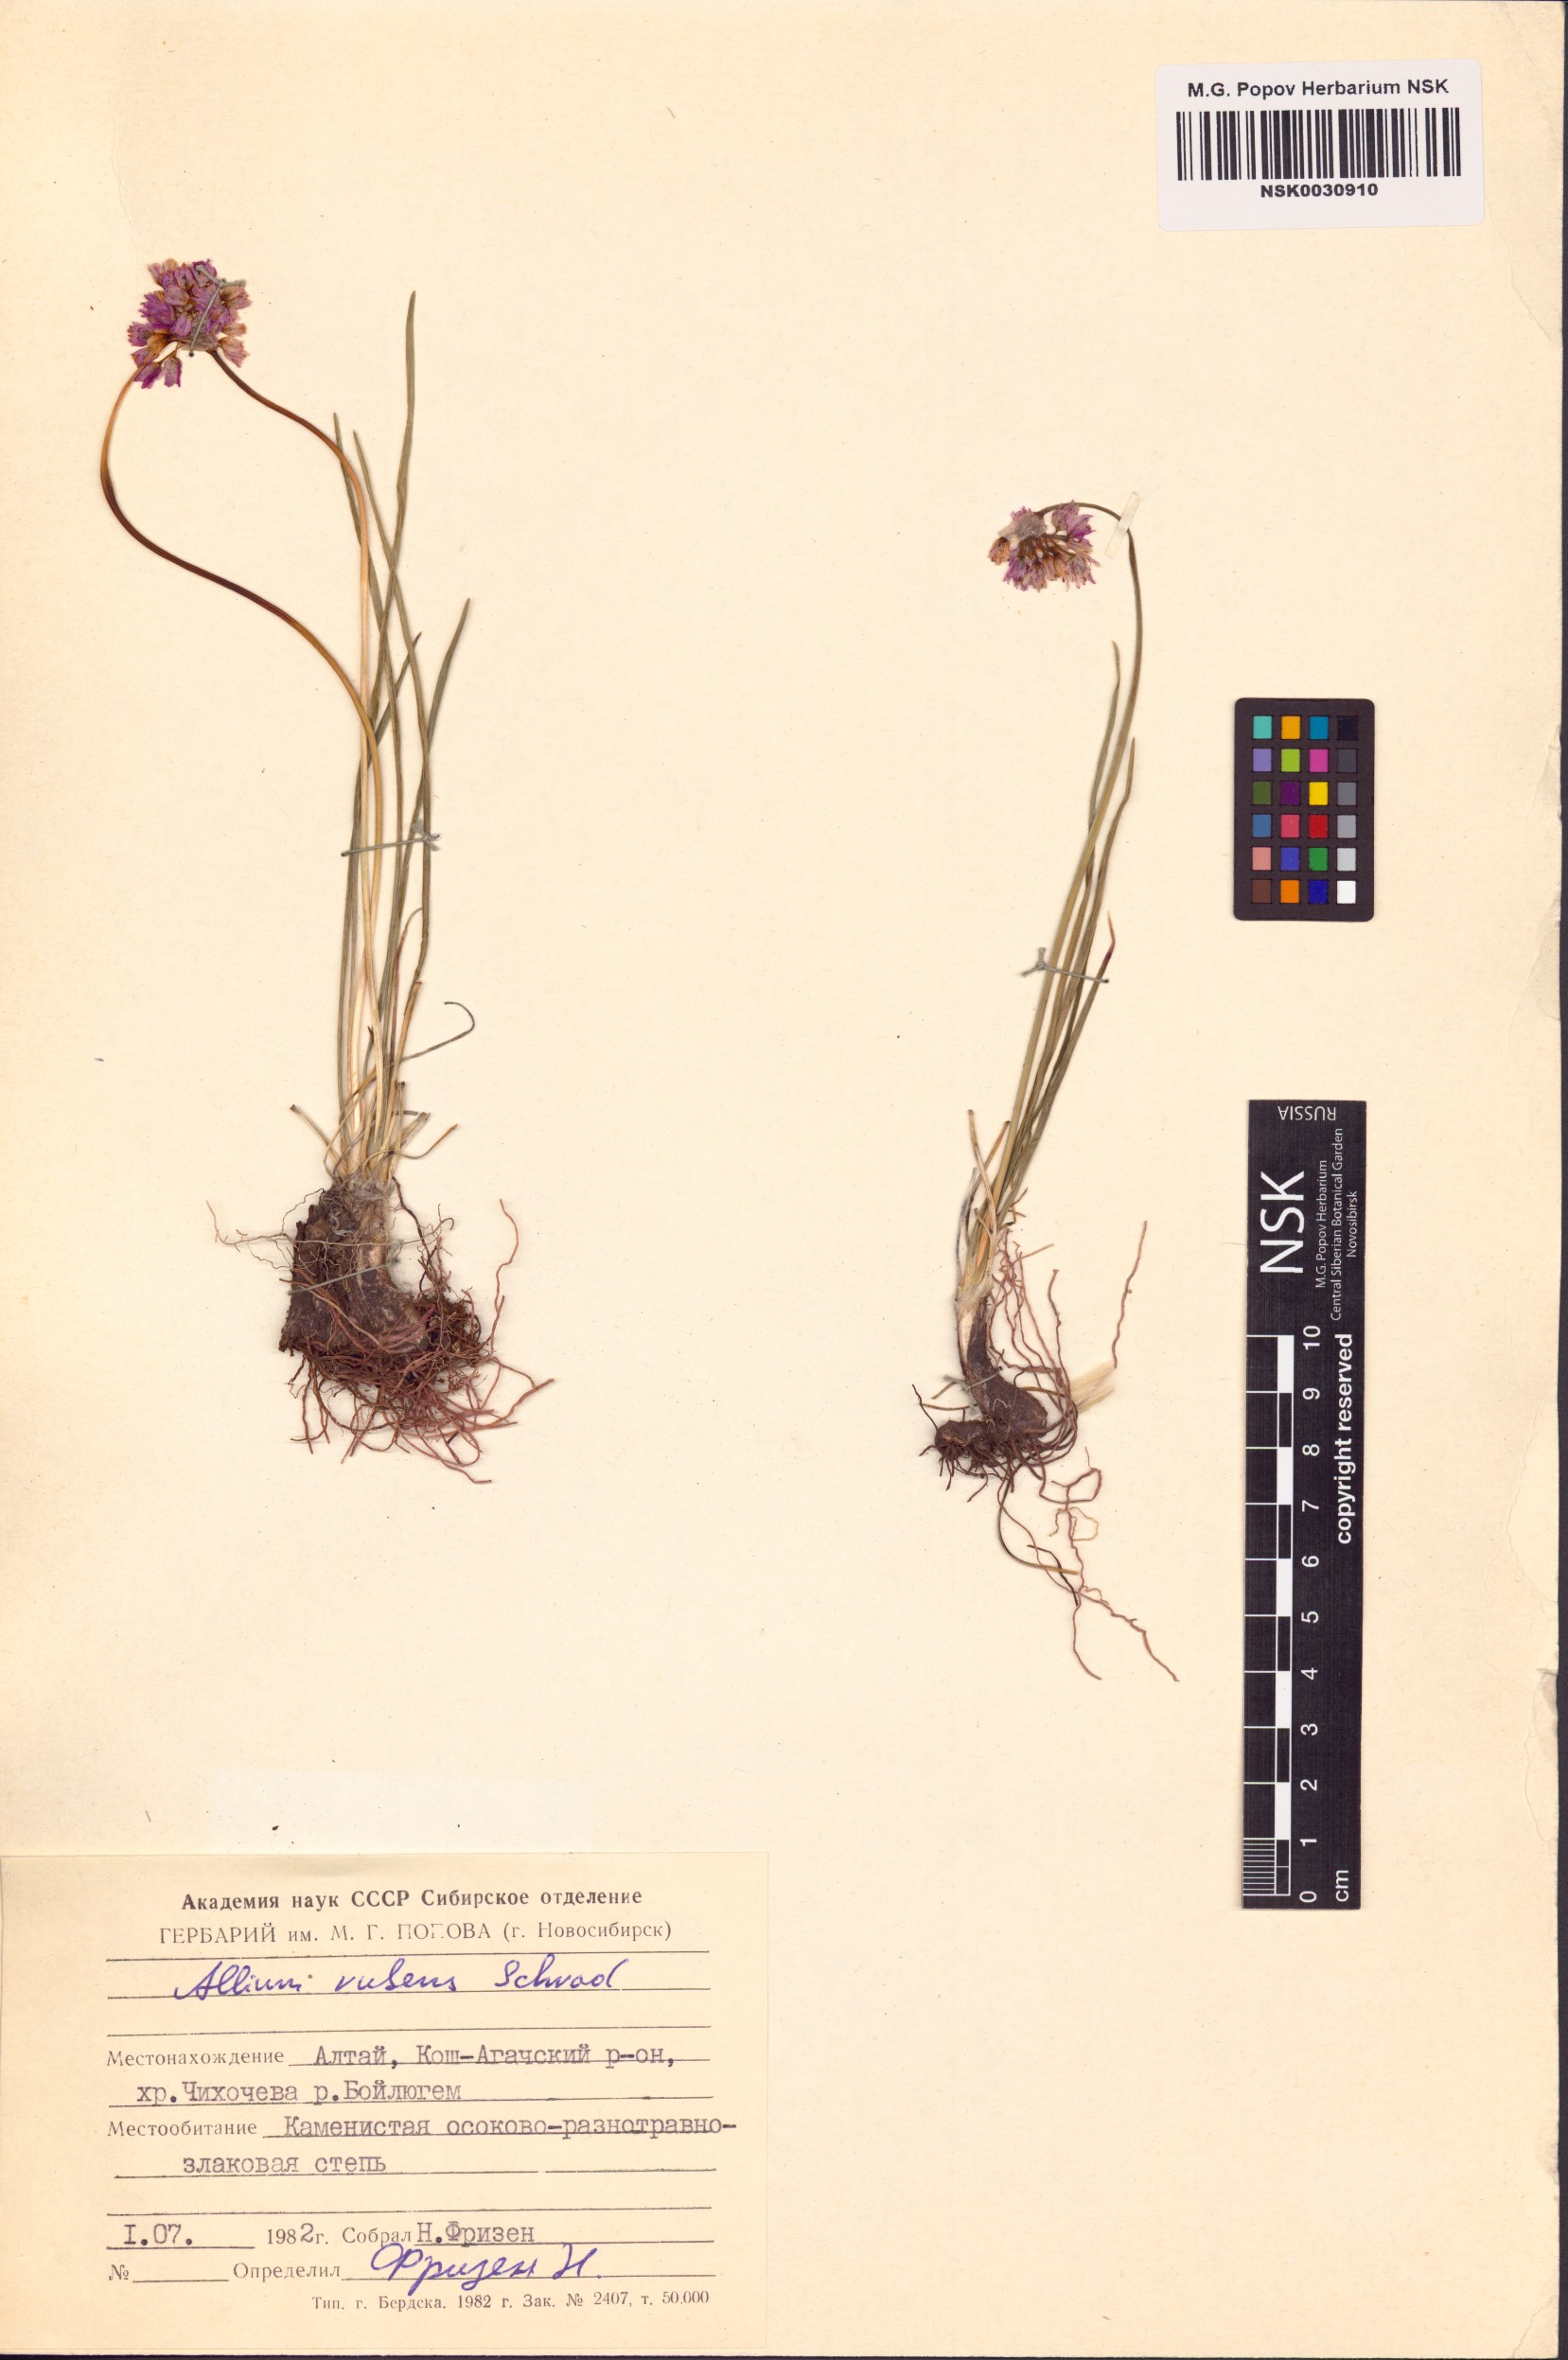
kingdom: Plantae
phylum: Tracheophyta
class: Liliopsida
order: Asparagales
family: Amaryllidaceae
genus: Allium
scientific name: Allium rubens
